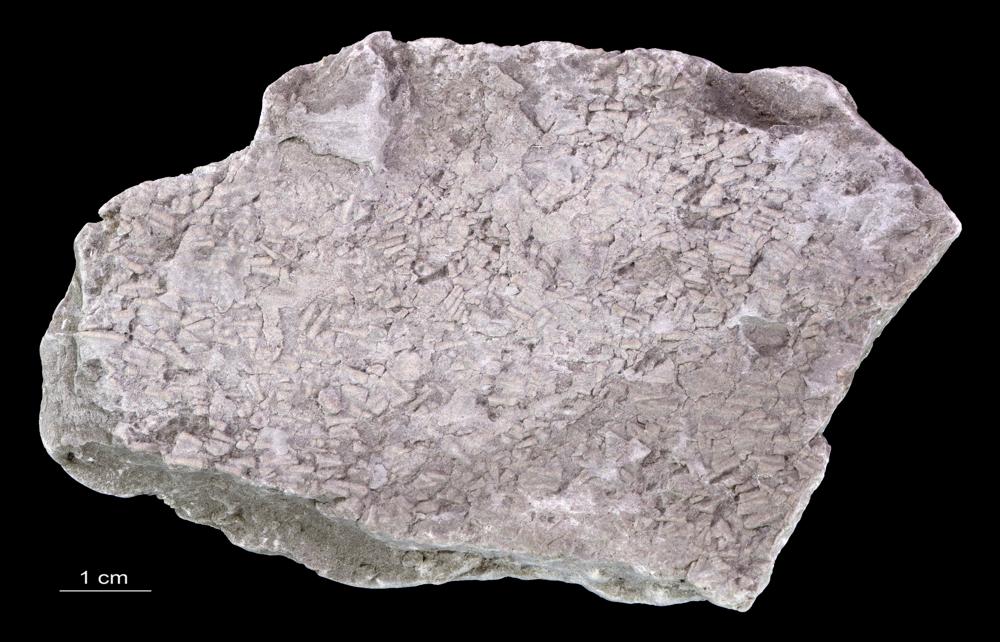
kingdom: Animalia
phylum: Annelida
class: Polychaeta
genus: Volborthella
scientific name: Volborthella tenuis
